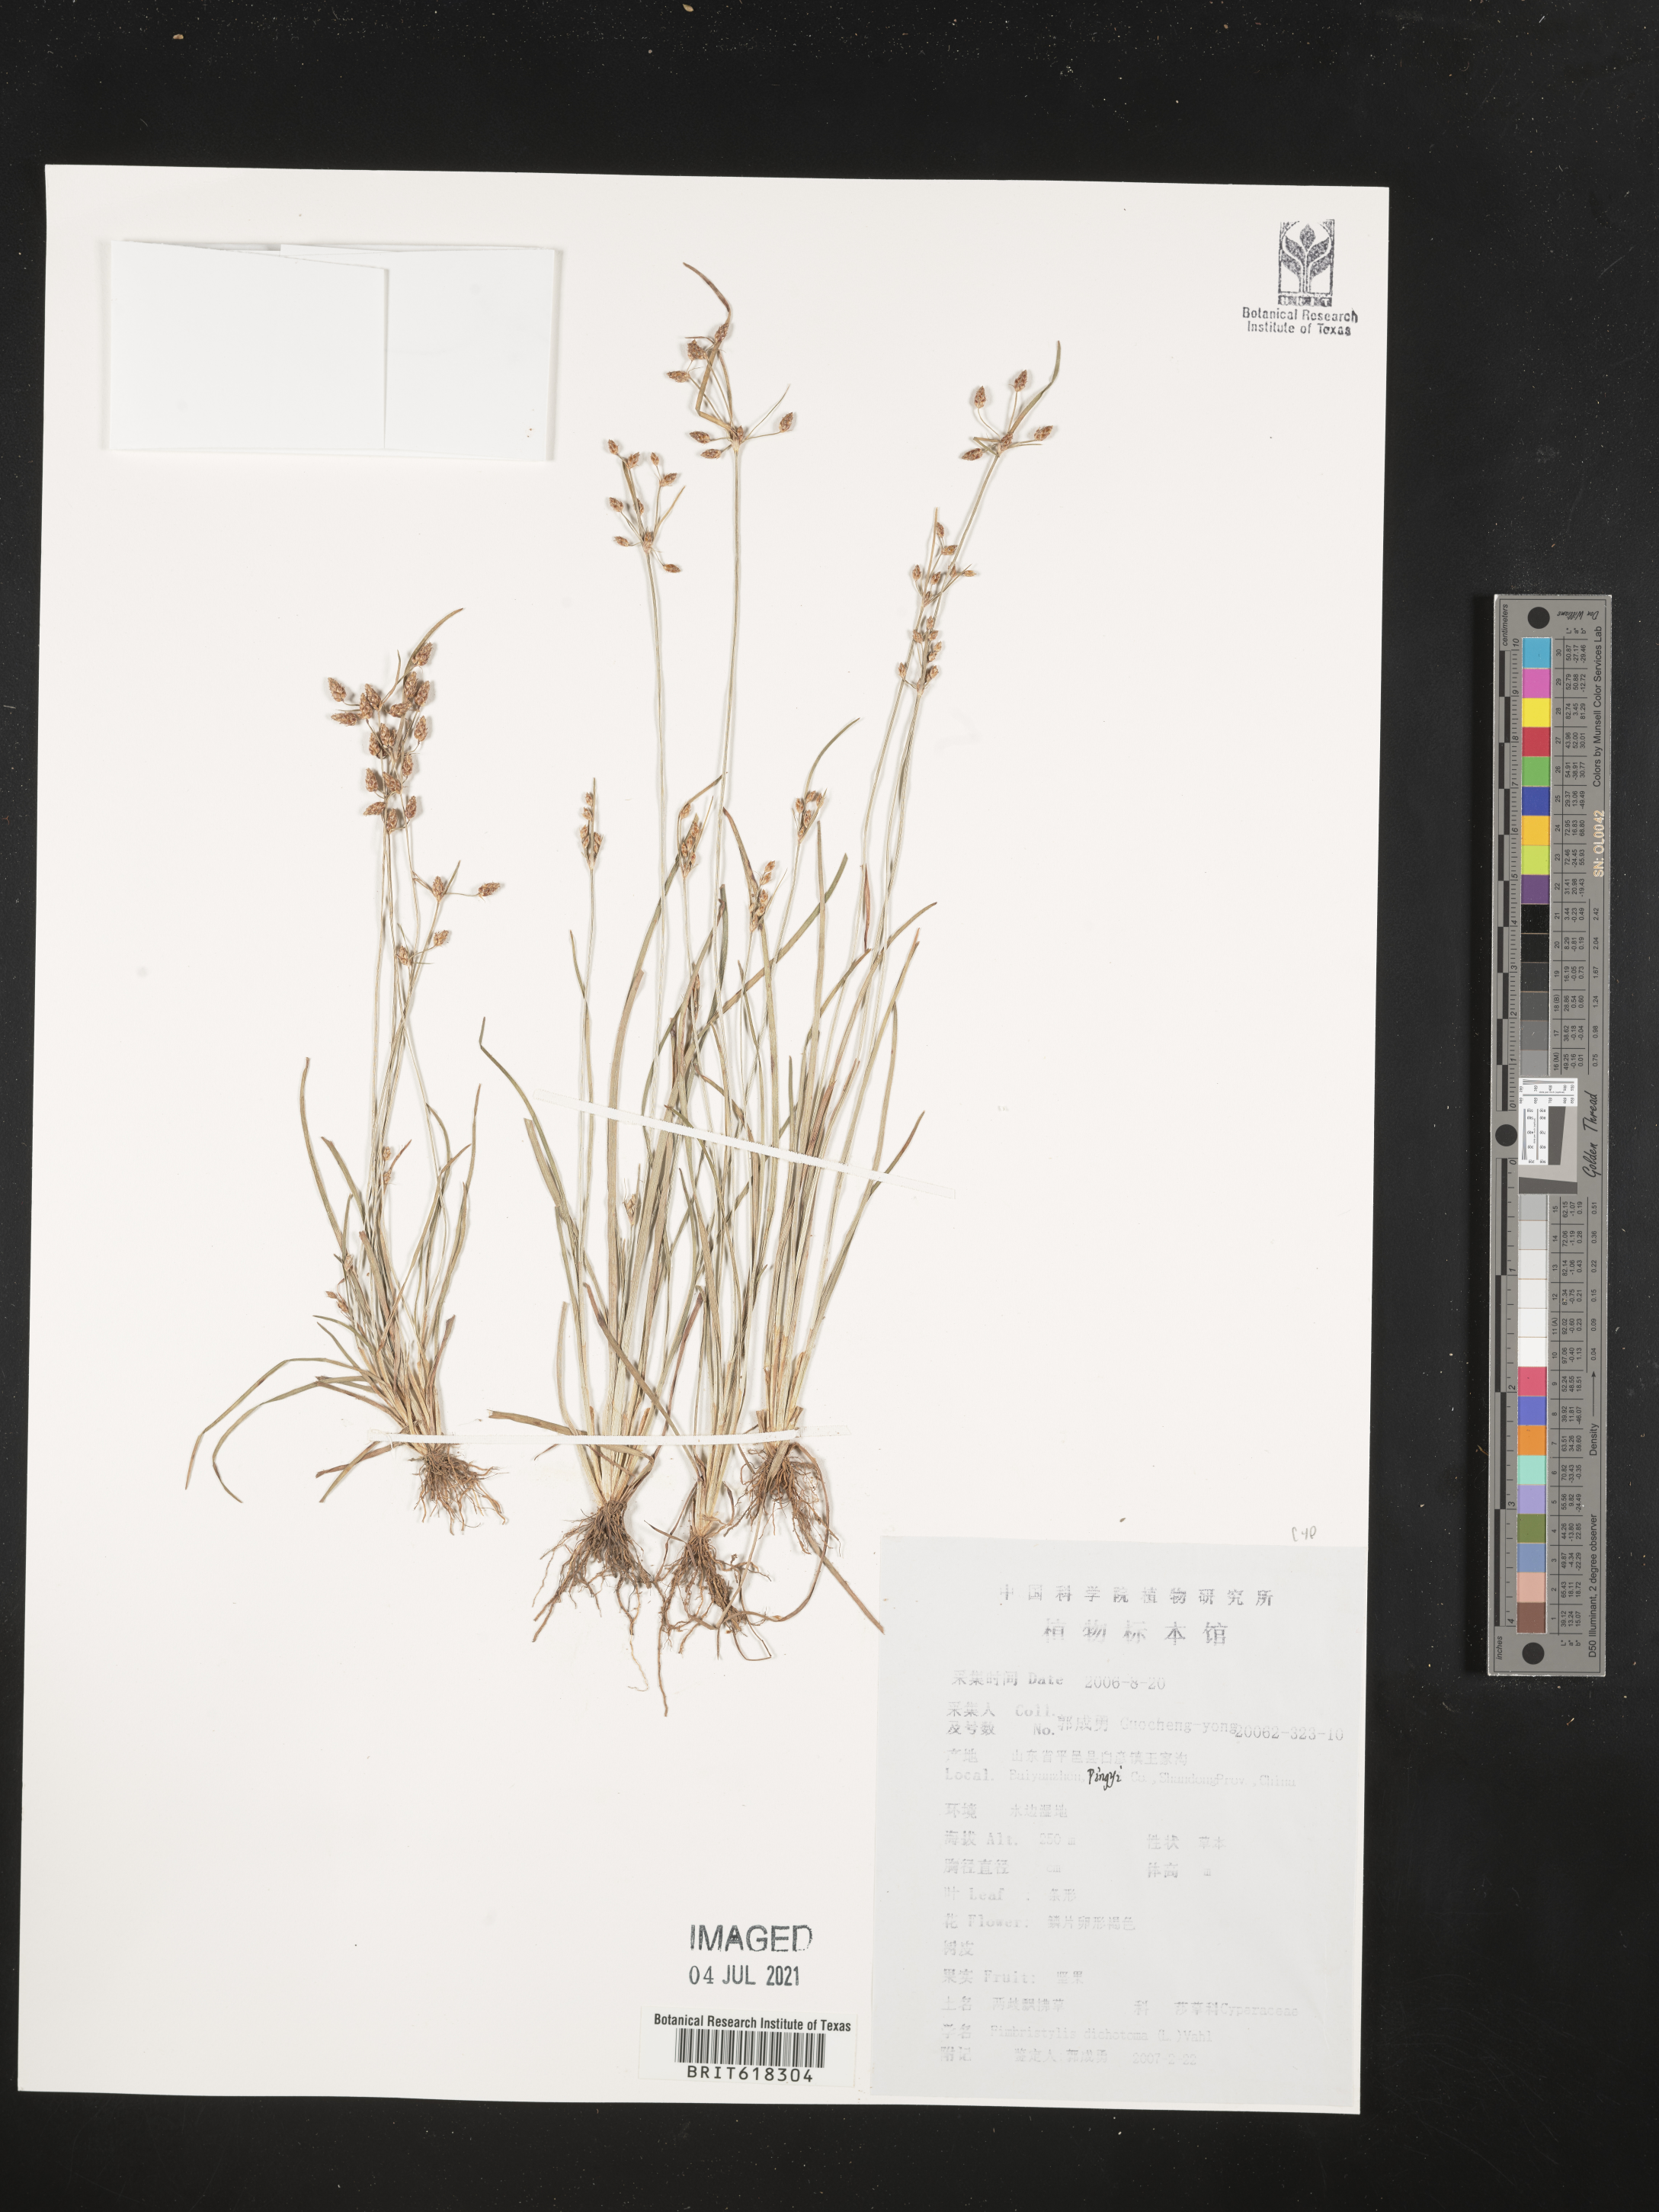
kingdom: Plantae
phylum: Tracheophyta
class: Liliopsida
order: Poales
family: Cyperaceae
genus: Fimbristylis
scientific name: Fimbristylis dichotoma
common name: Forked fimbry
